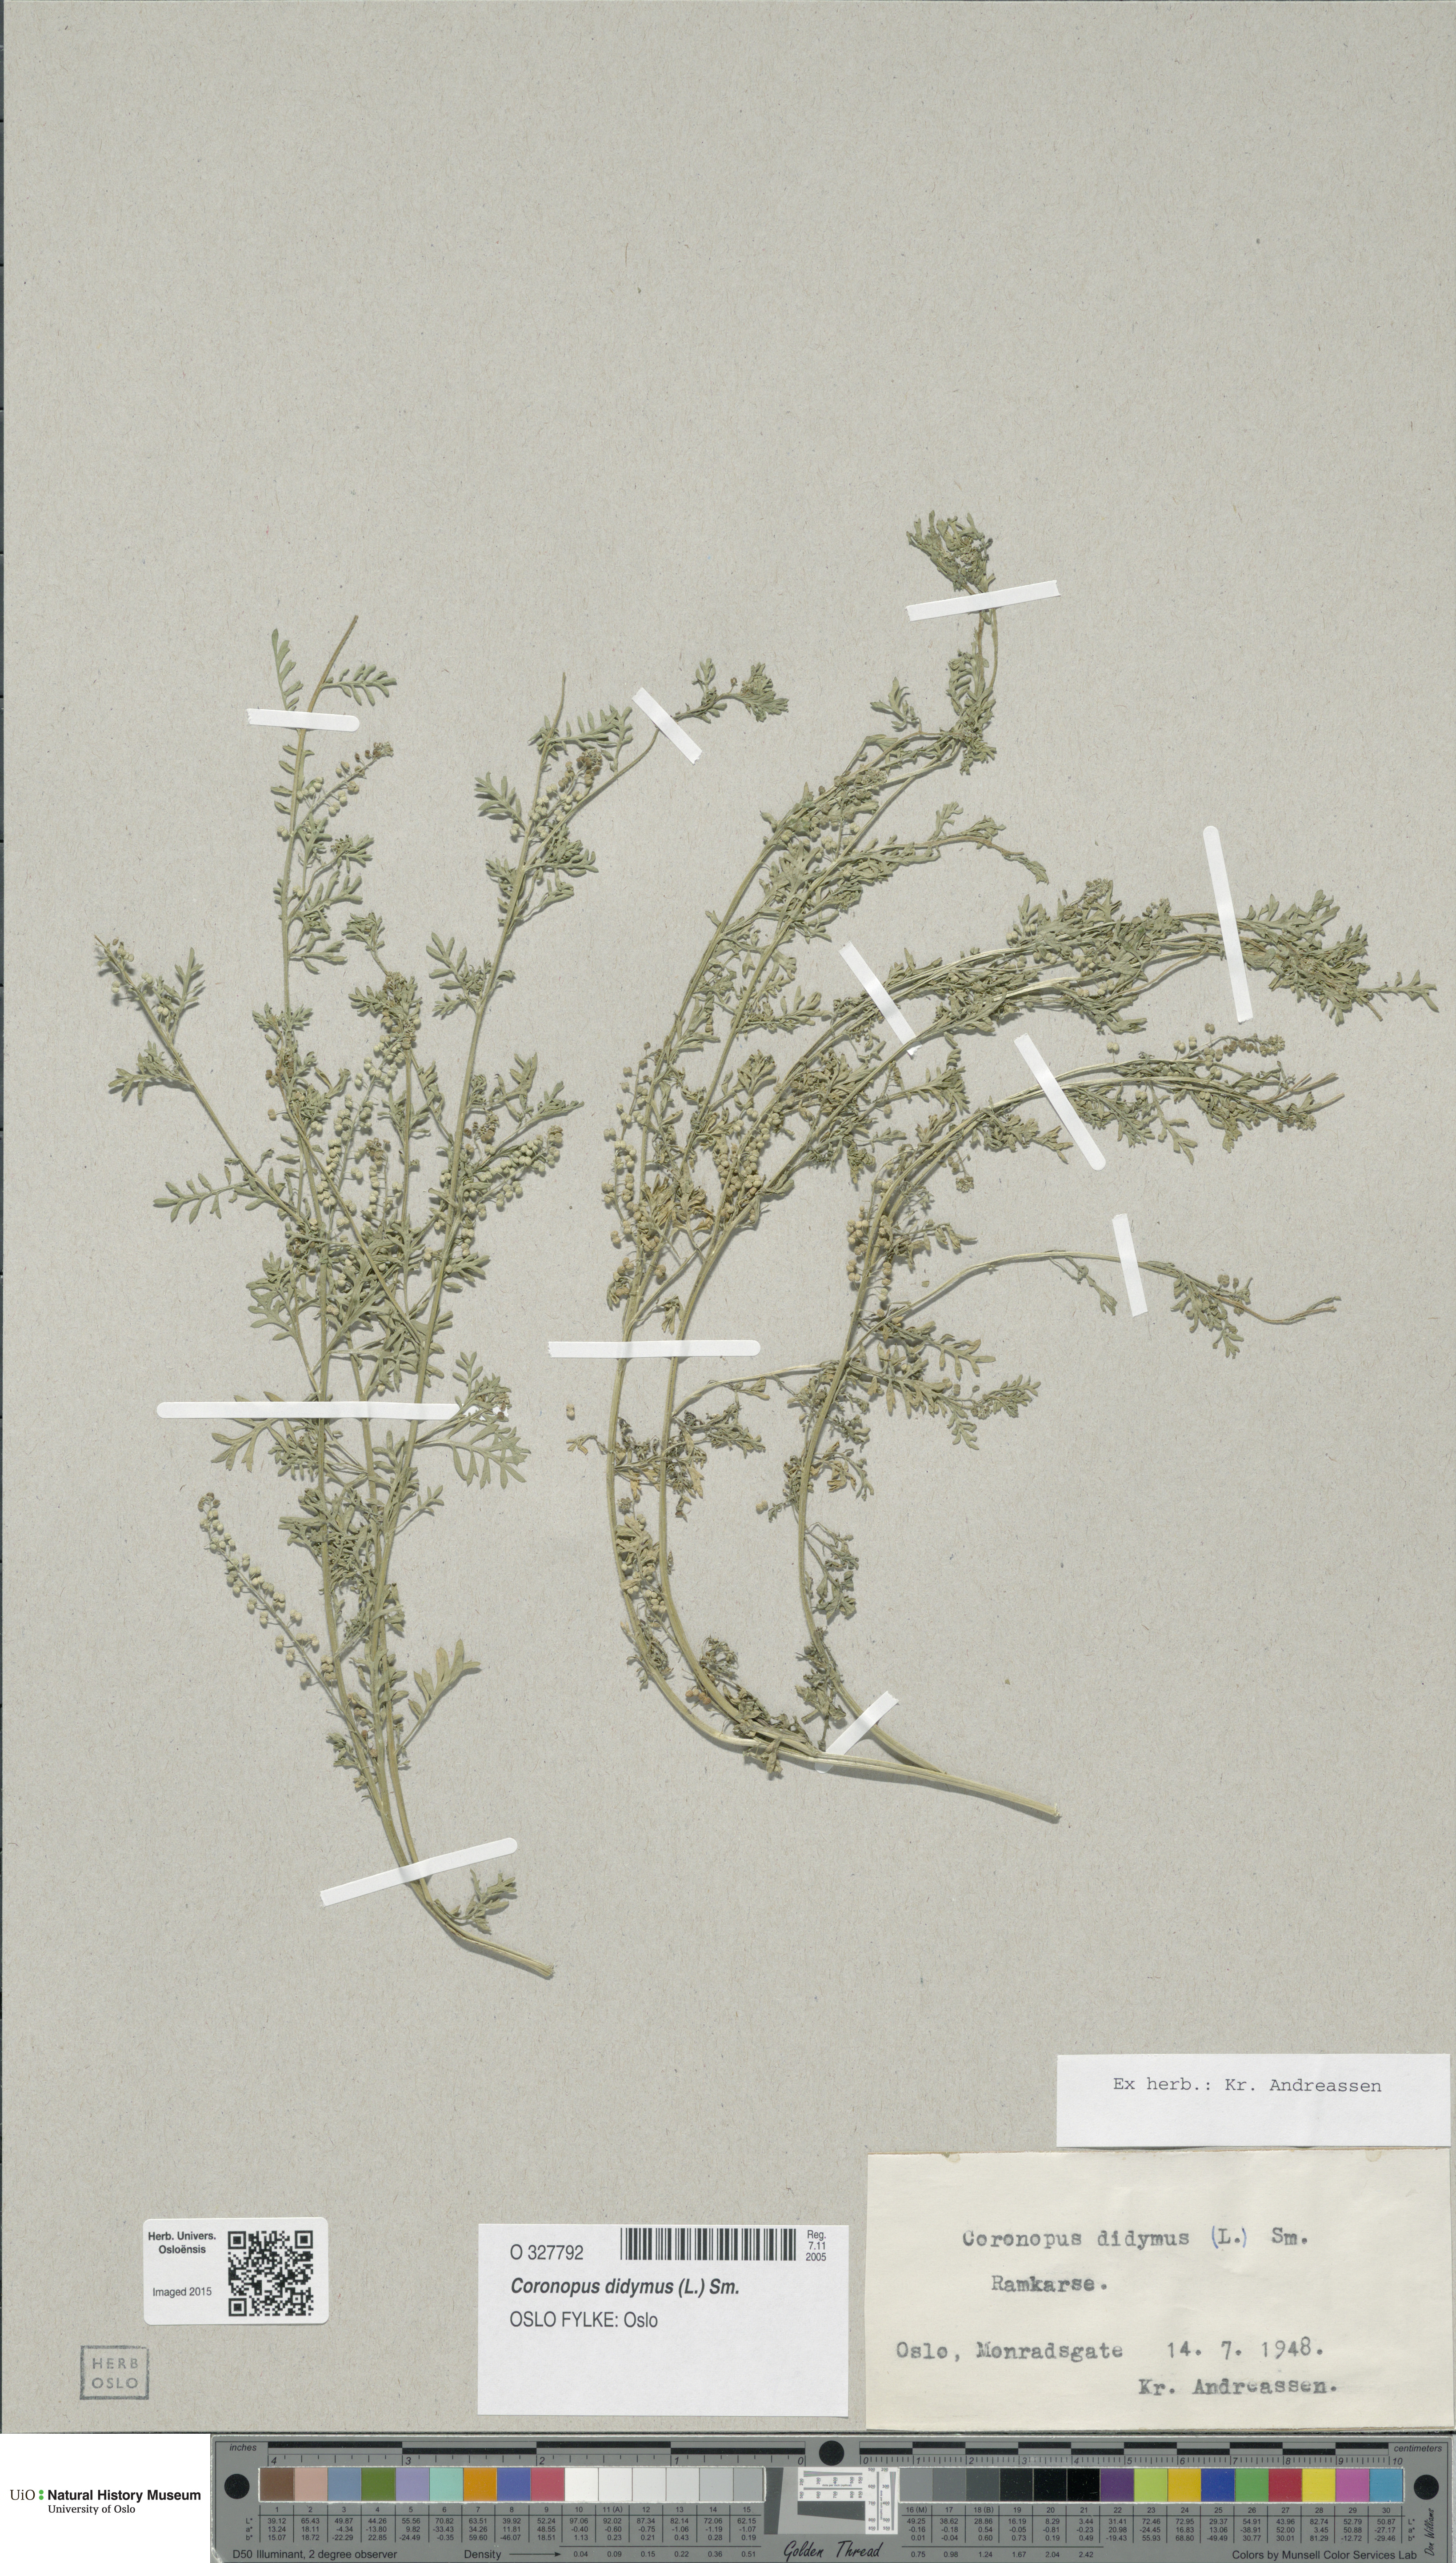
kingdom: Plantae
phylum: Tracheophyta
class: Magnoliopsida
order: Brassicales
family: Brassicaceae
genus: Lepidium
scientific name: Lepidium didymum
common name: Lesser swinecress
